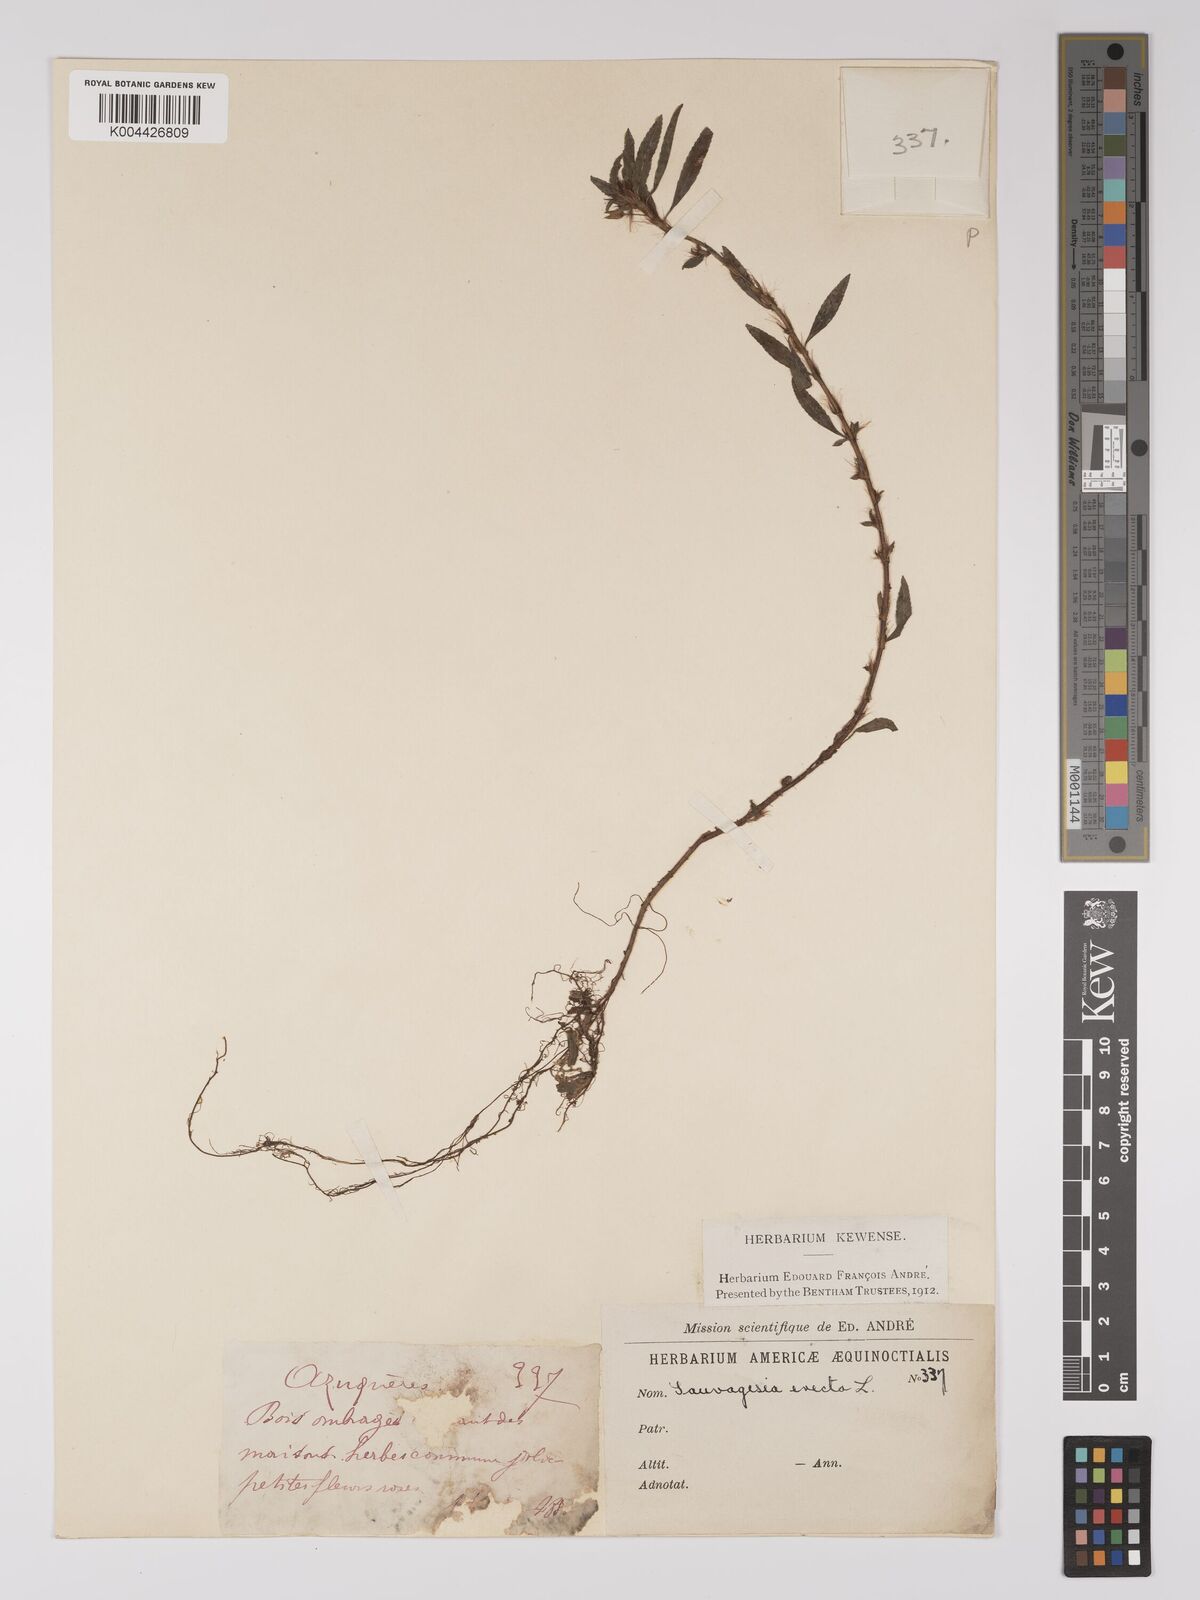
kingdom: Plantae
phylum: Tracheophyta
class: Magnoliopsida
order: Malpighiales
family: Ochnaceae
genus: Sauvagesia
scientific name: Sauvagesia erecta
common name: Creole tea
